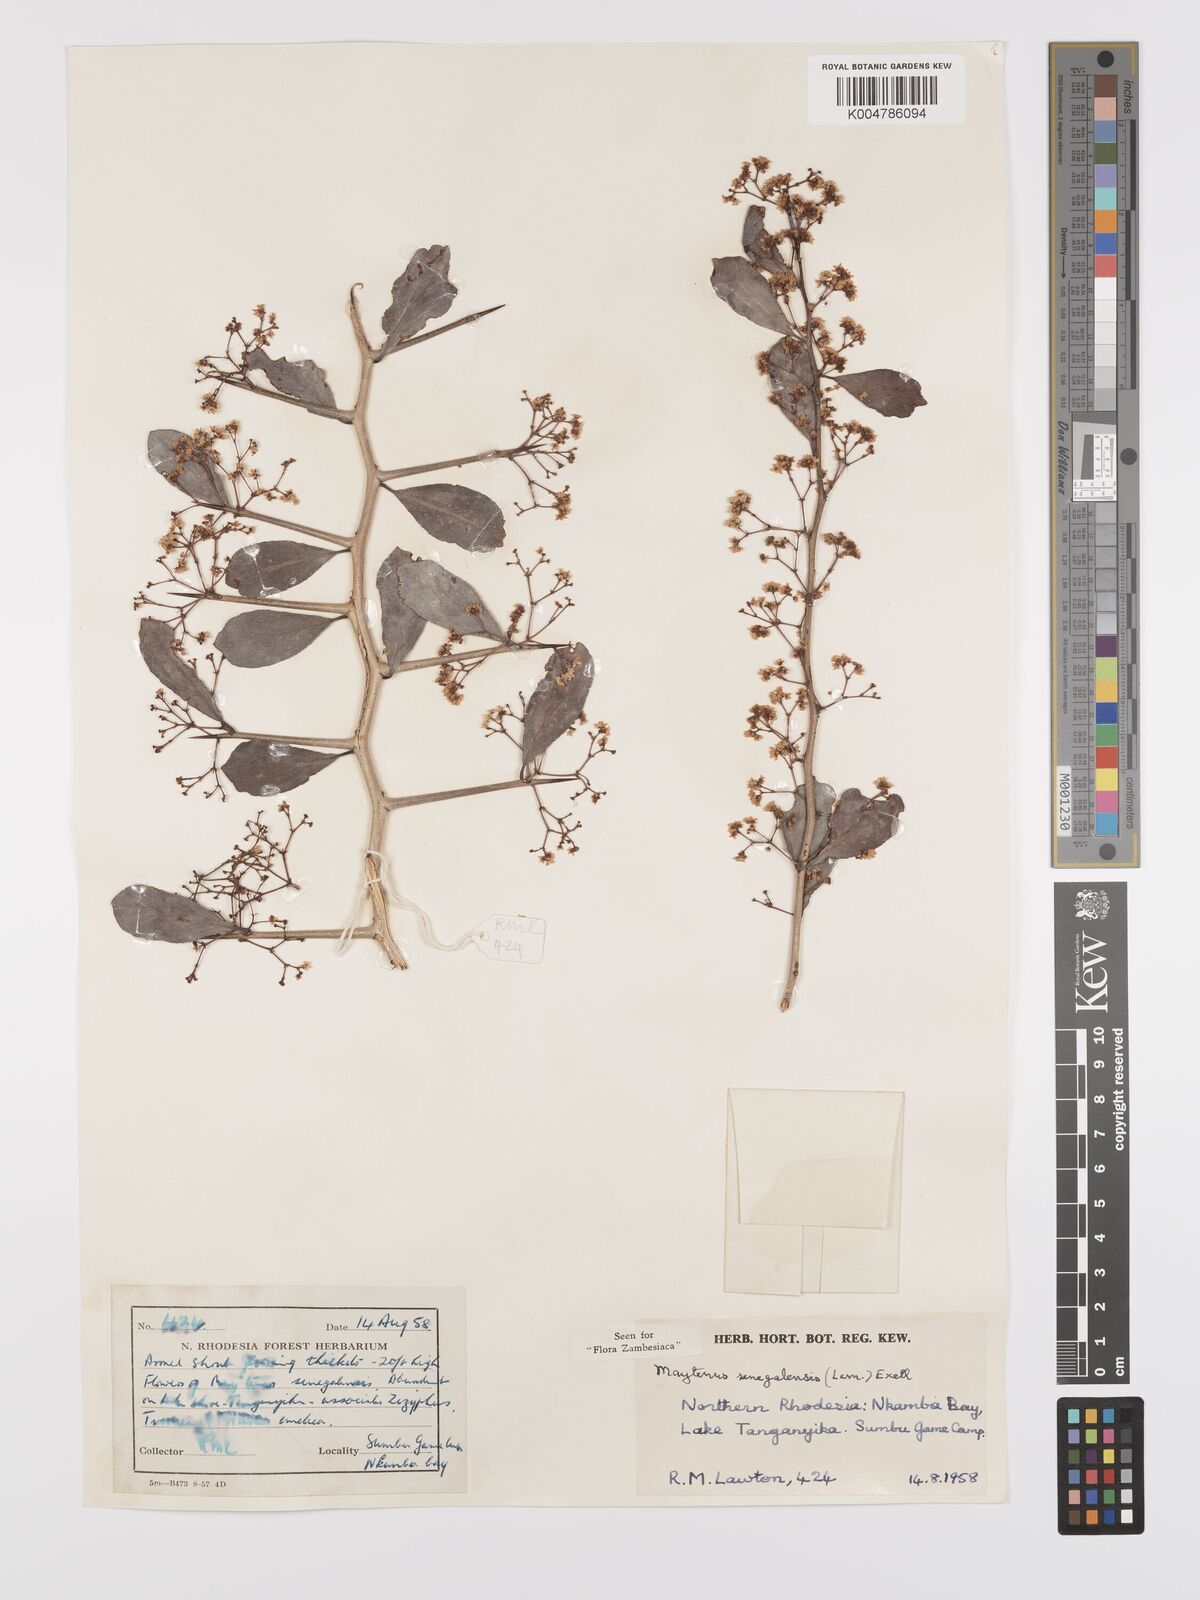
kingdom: Plantae
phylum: Tracheophyta
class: Magnoliopsida
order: Celastrales
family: Celastraceae
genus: Gymnosporia
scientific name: Gymnosporia senegalensis
